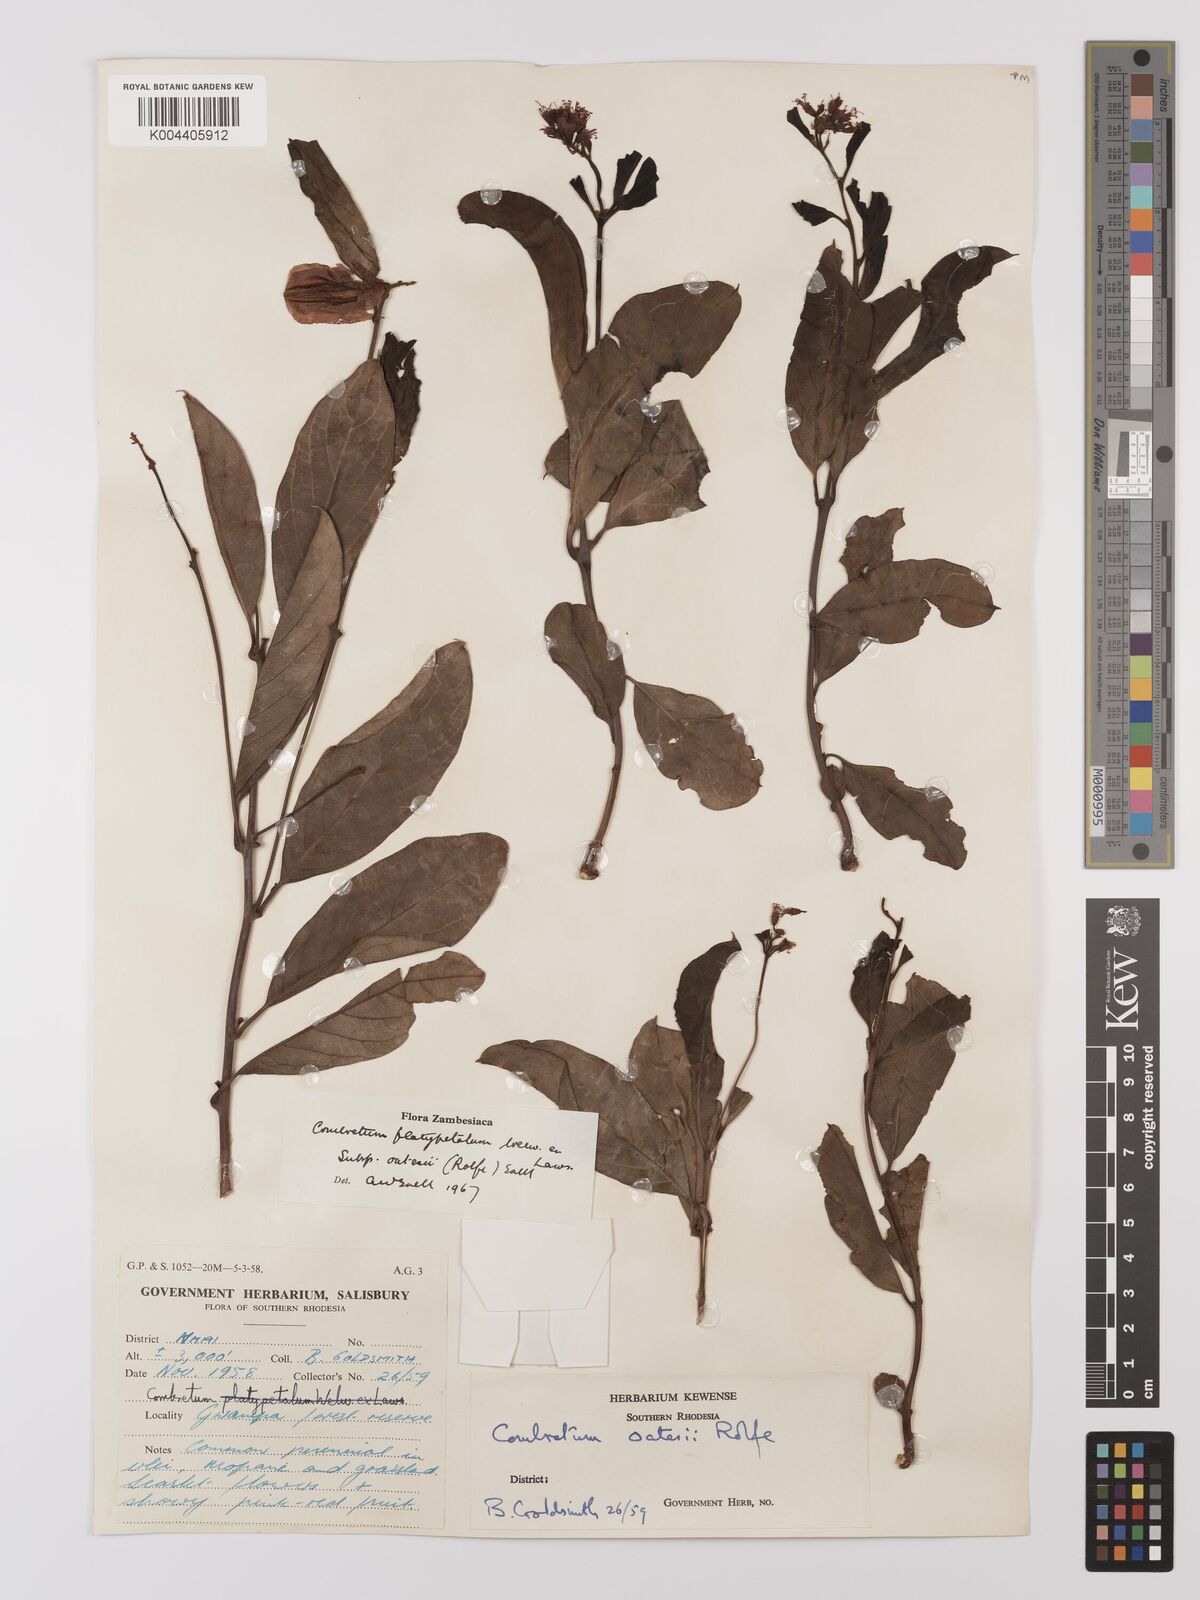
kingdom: Plantae
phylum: Tracheophyta
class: Magnoliopsida
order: Myrtales
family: Combretaceae
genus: Combretum
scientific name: Combretum platypetalum
